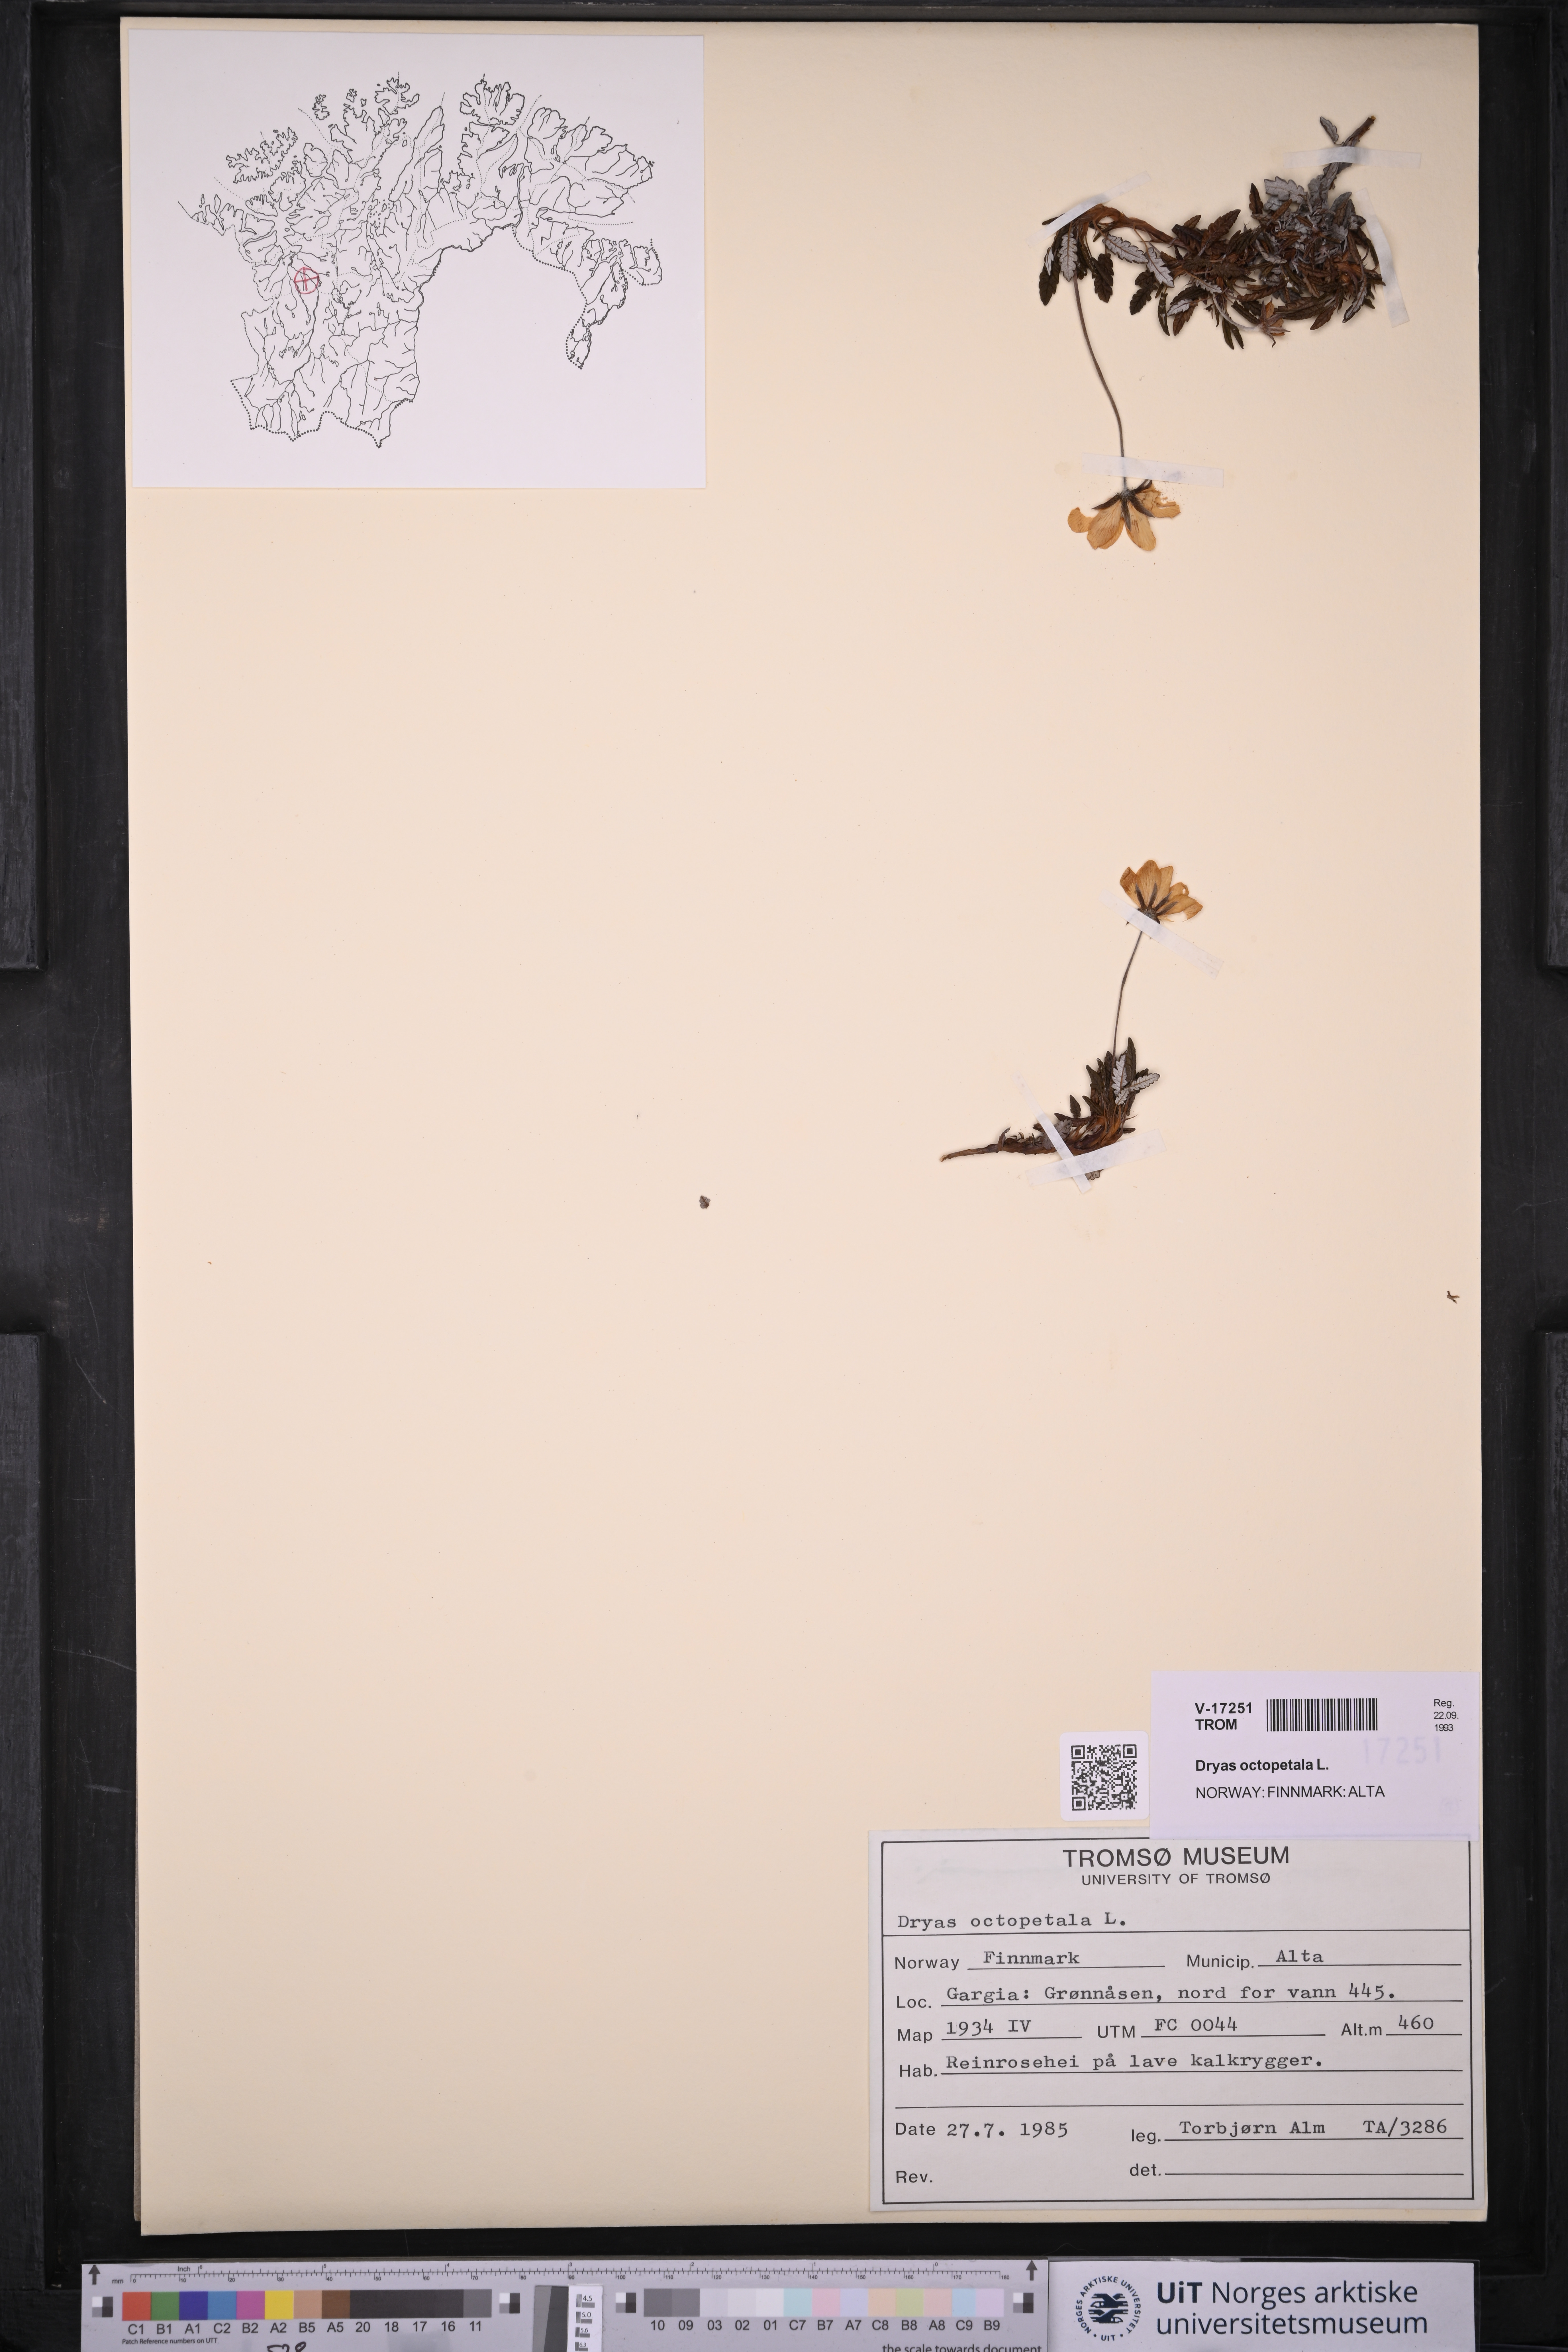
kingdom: Plantae
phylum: Tracheophyta
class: Magnoliopsida
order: Rosales
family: Rosaceae
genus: Dryas
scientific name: Dryas octopetala
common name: Eight-petal mountain-avens
